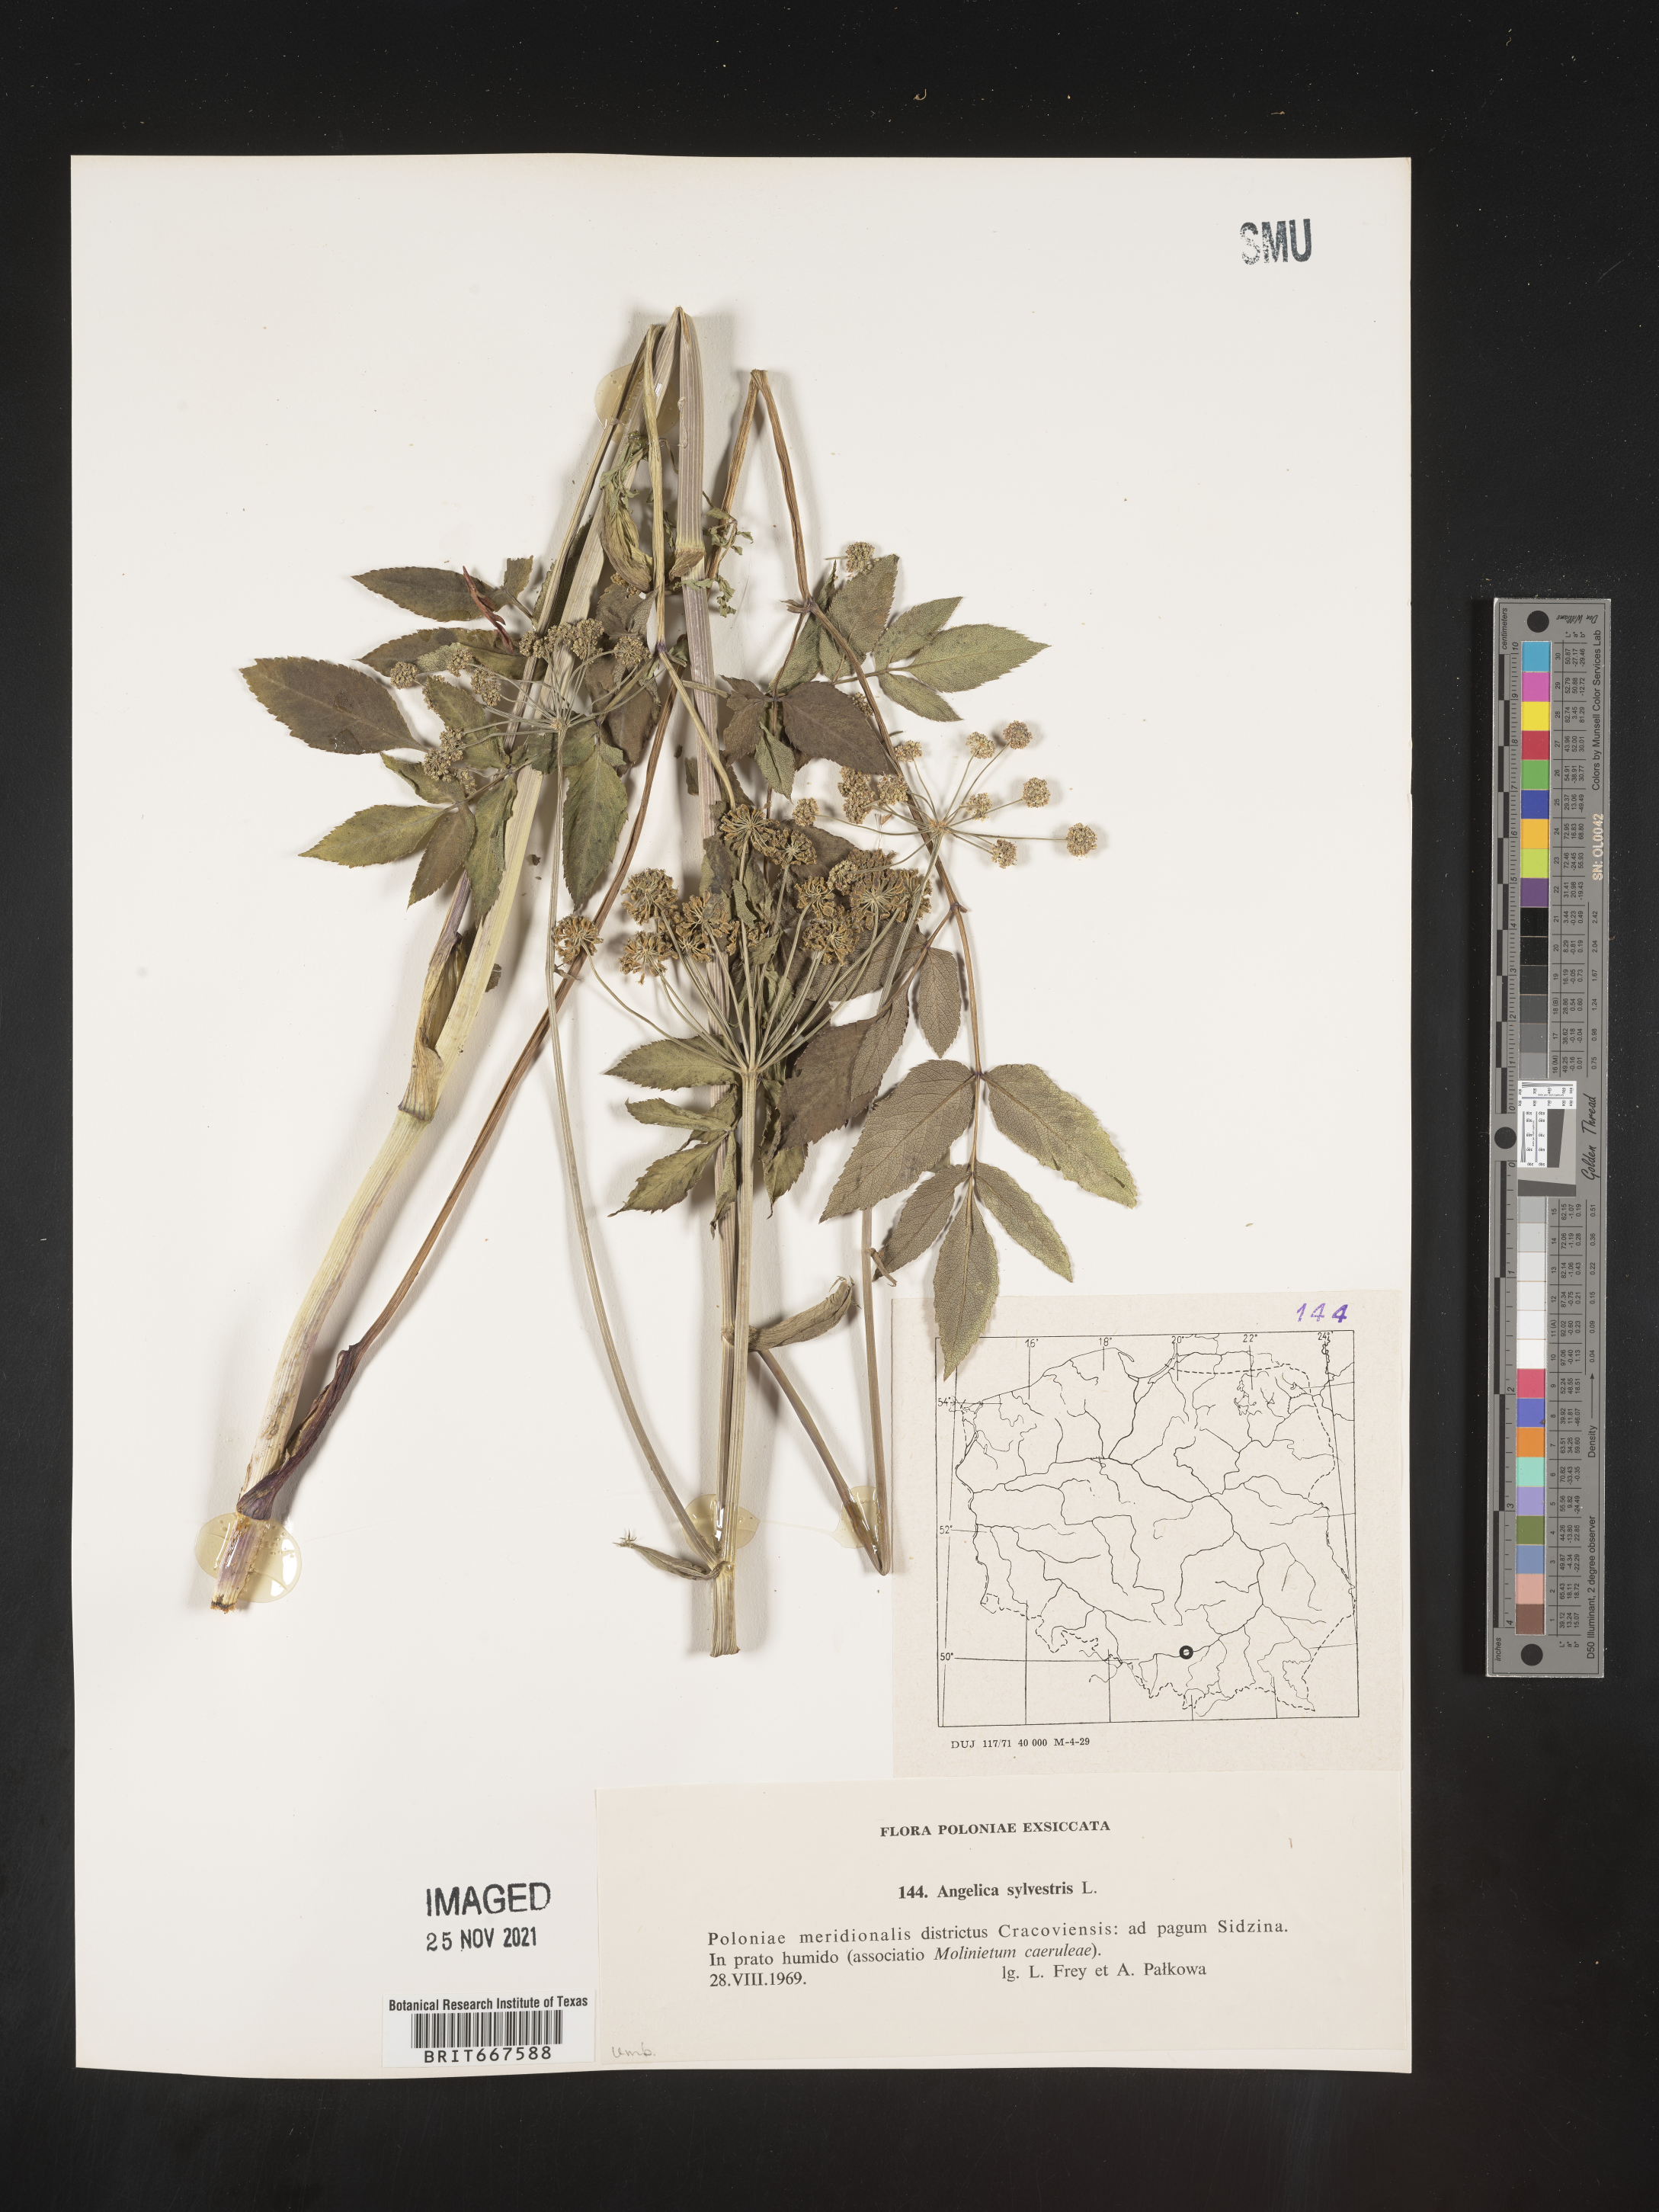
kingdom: Plantae
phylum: Tracheophyta
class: Magnoliopsida
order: Apiales
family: Apiaceae
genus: Angelica
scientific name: Angelica
